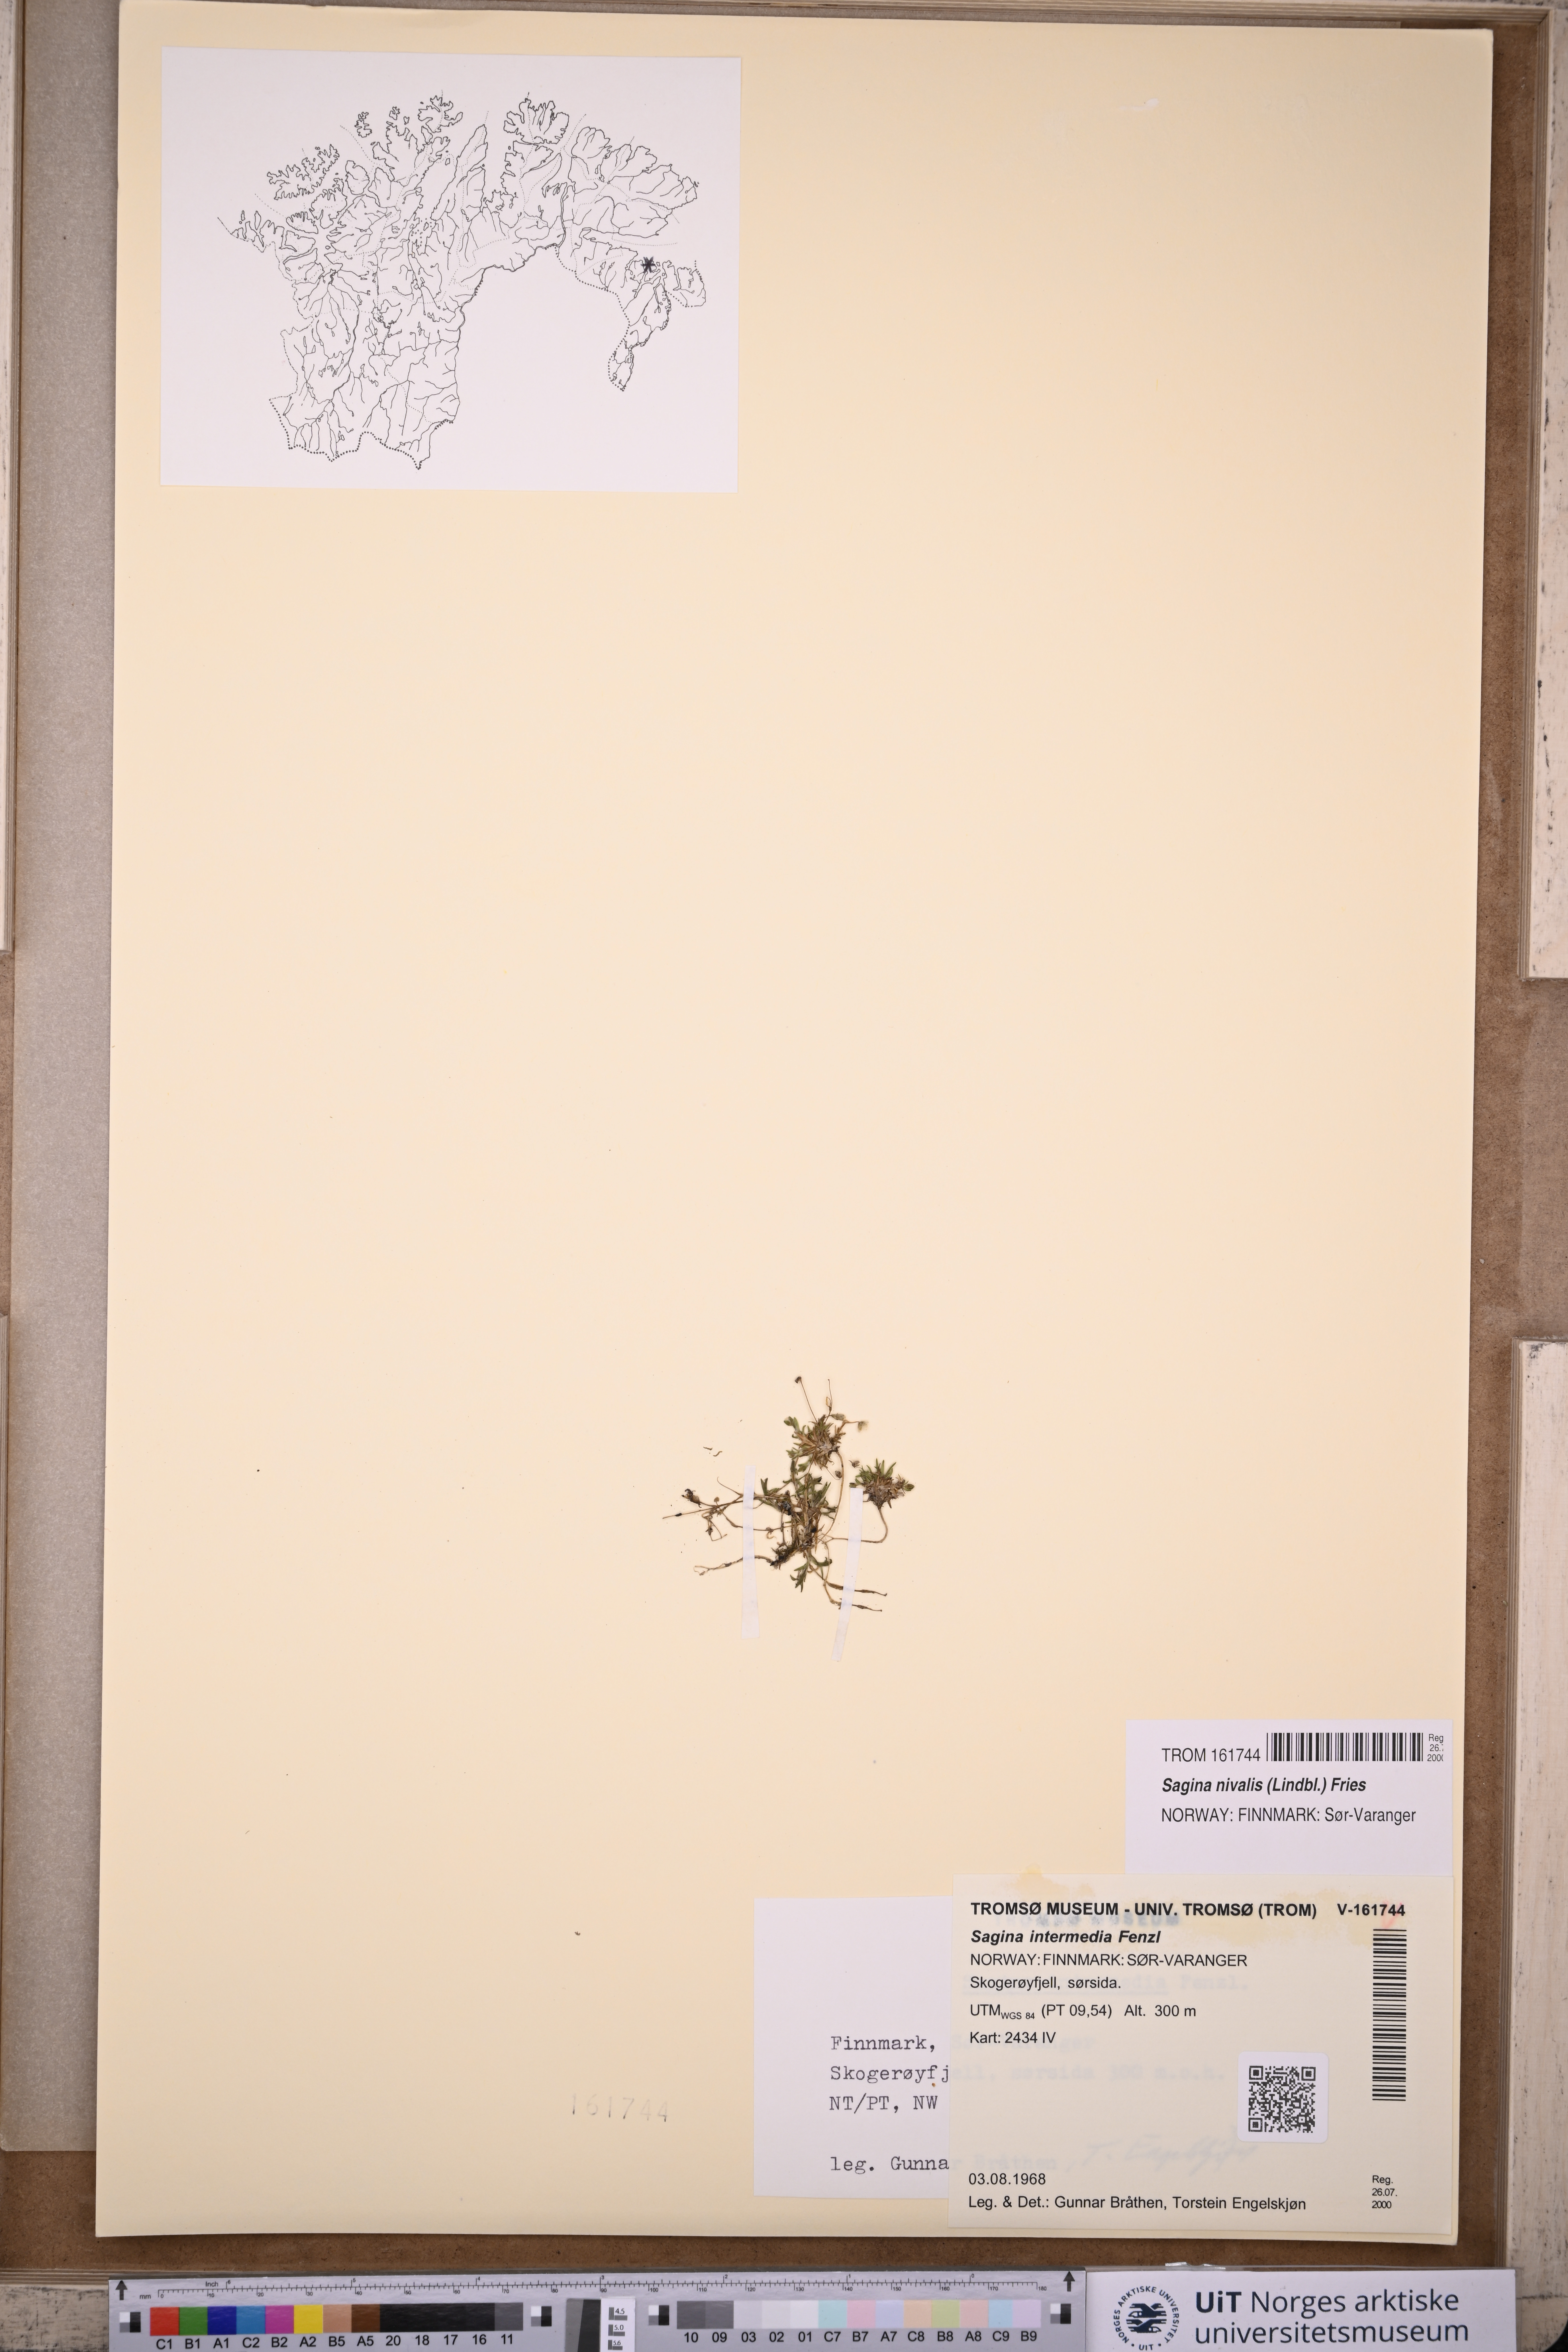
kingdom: Plantae
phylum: Tracheophyta
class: Magnoliopsida
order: Caryophyllales
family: Caryophyllaceae
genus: Sagina
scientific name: Sagina nivalis
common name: Snow pearlwort
